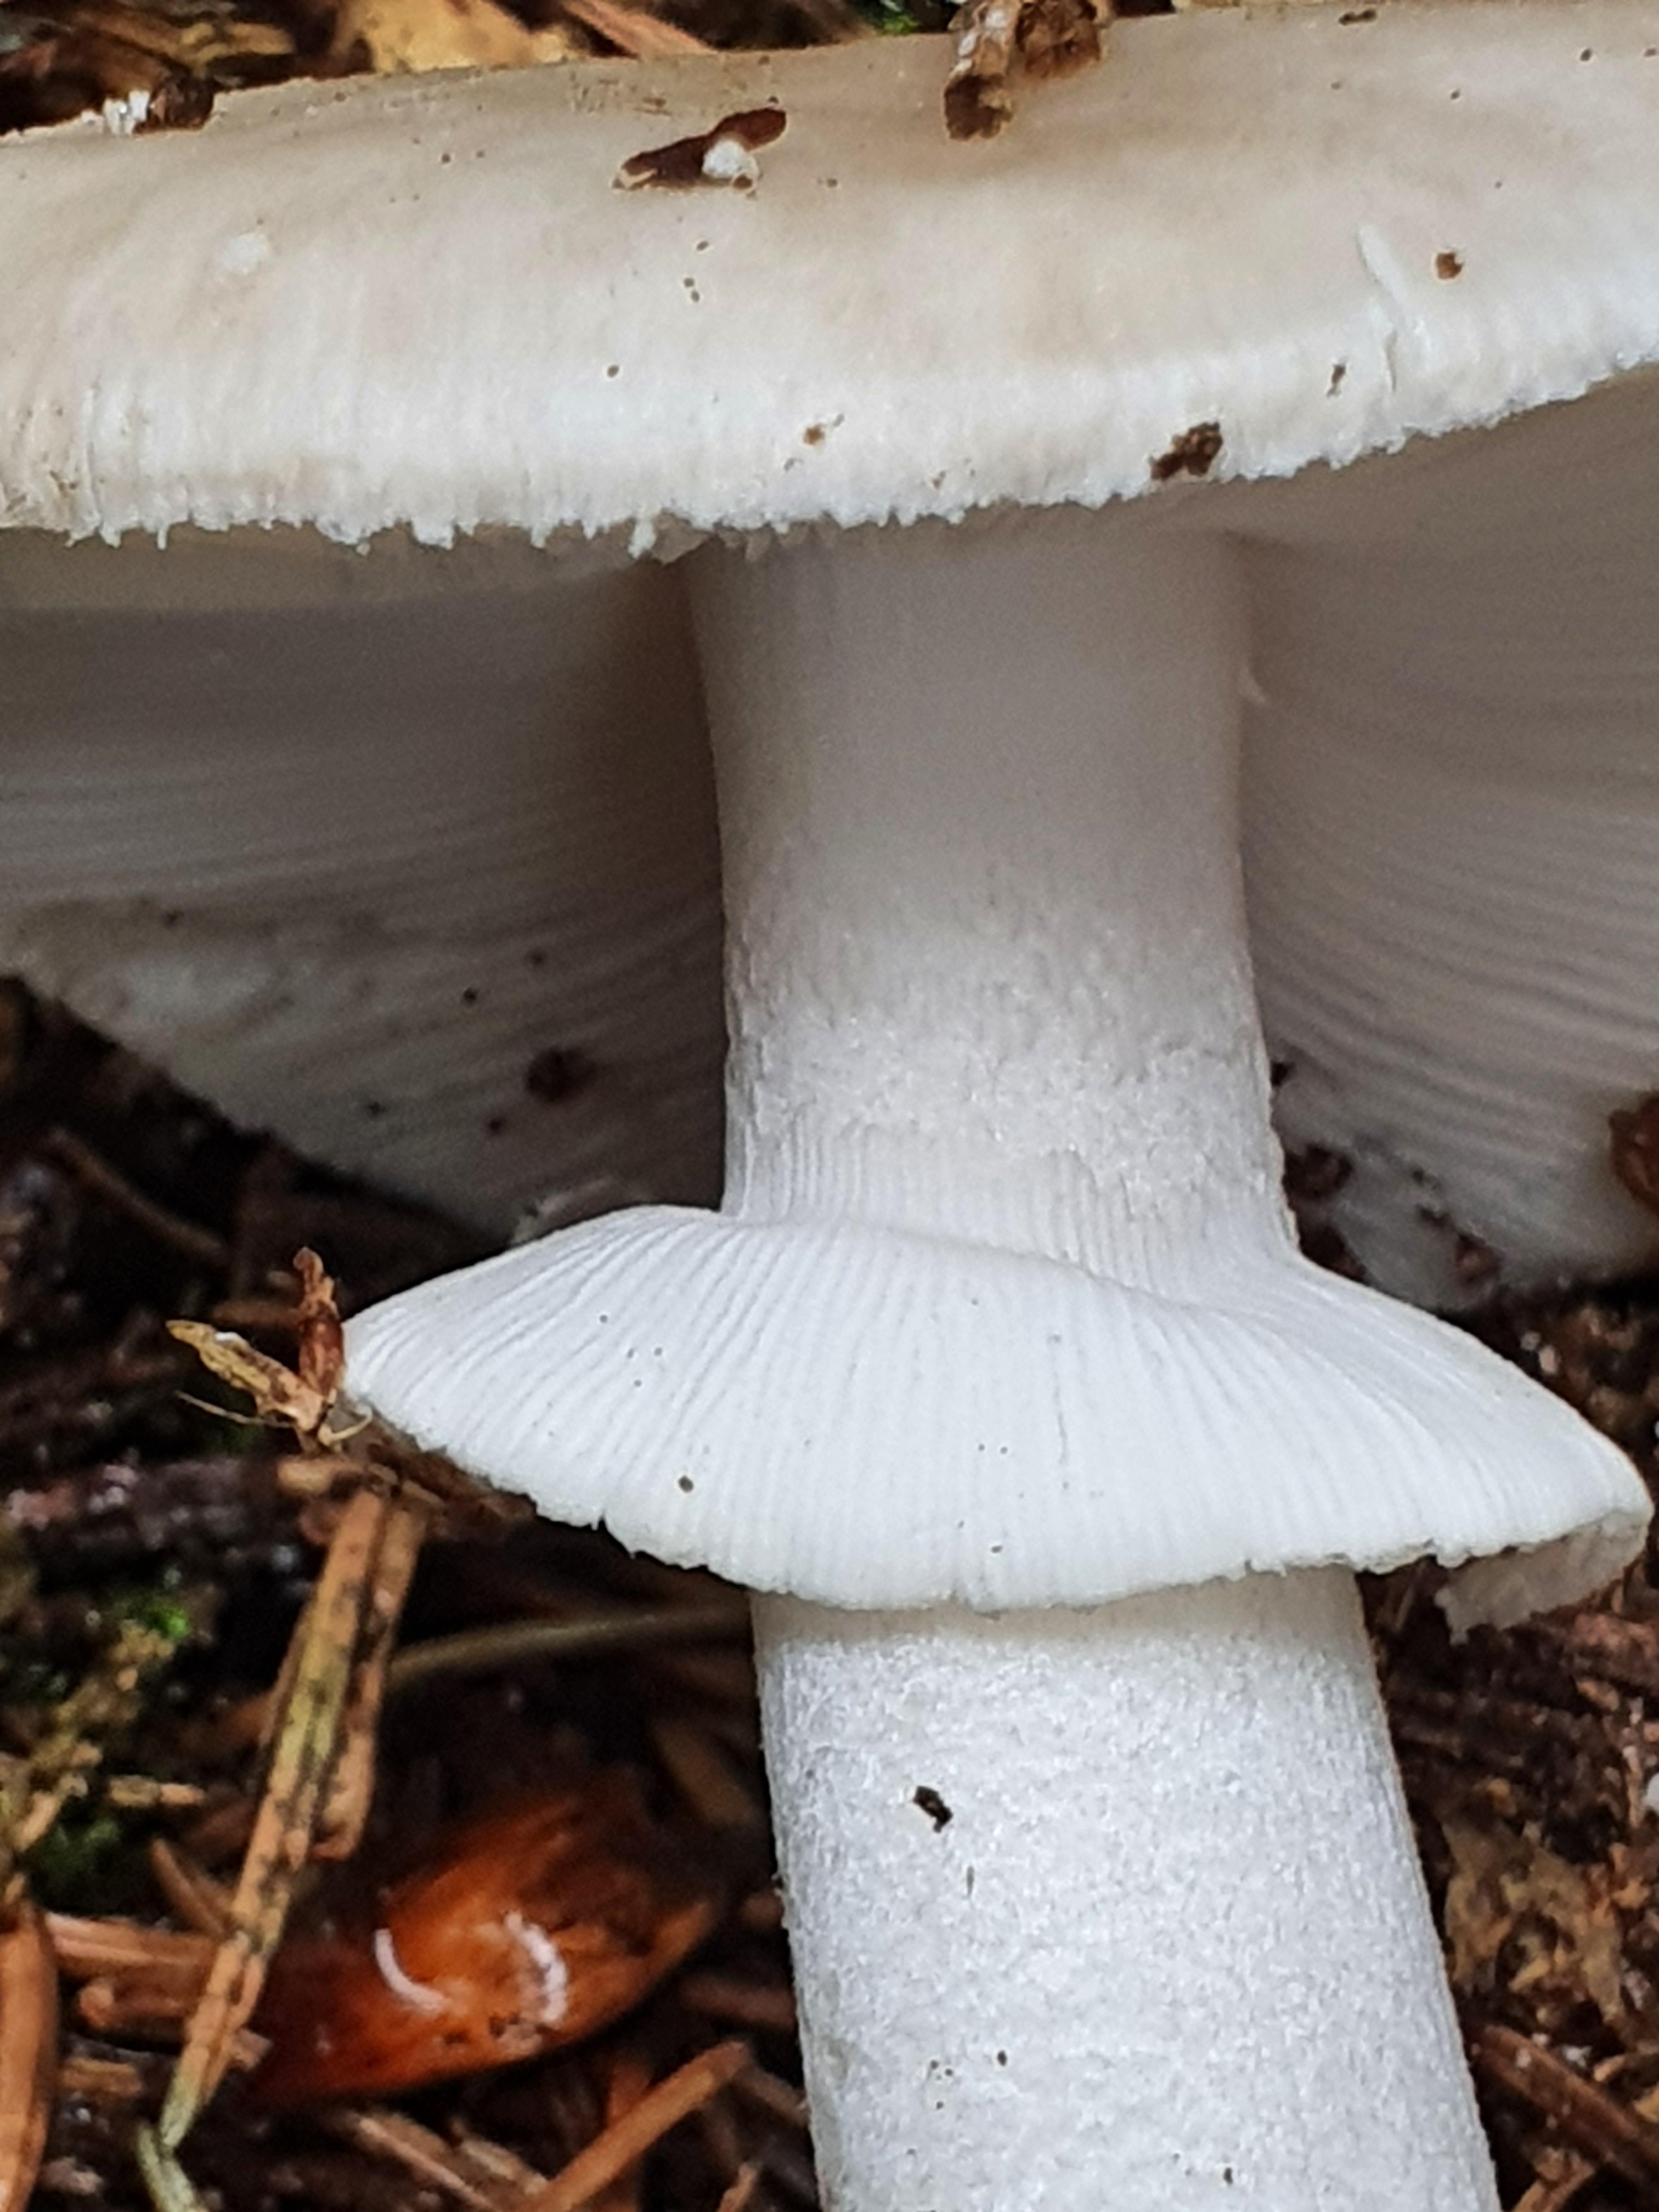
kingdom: Fungi
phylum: Basidiomycota
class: Agaricomycetes
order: Agaricales
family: Amanitaceae
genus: Amanita
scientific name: Amanita
